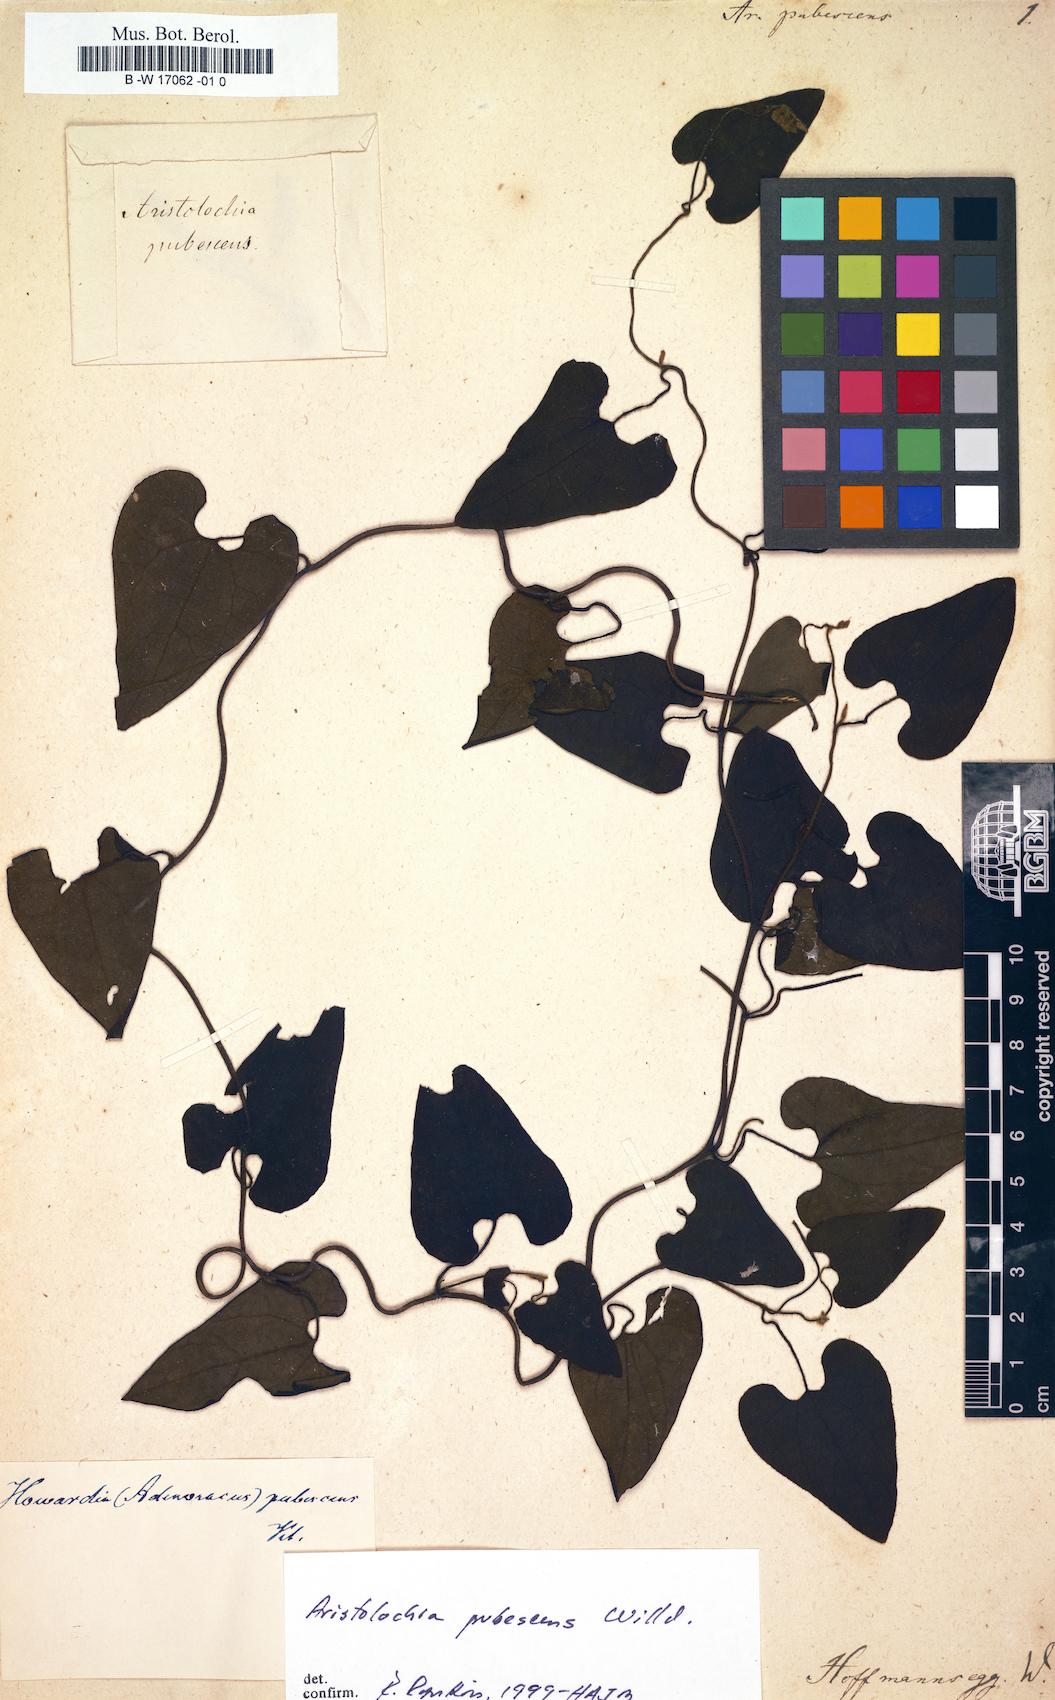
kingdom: Plantae
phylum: Tracheophyta
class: Magnoliopsida
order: Piperales
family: Aristolochiaceae
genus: Aristolochia
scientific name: Aristolochia pubescens
